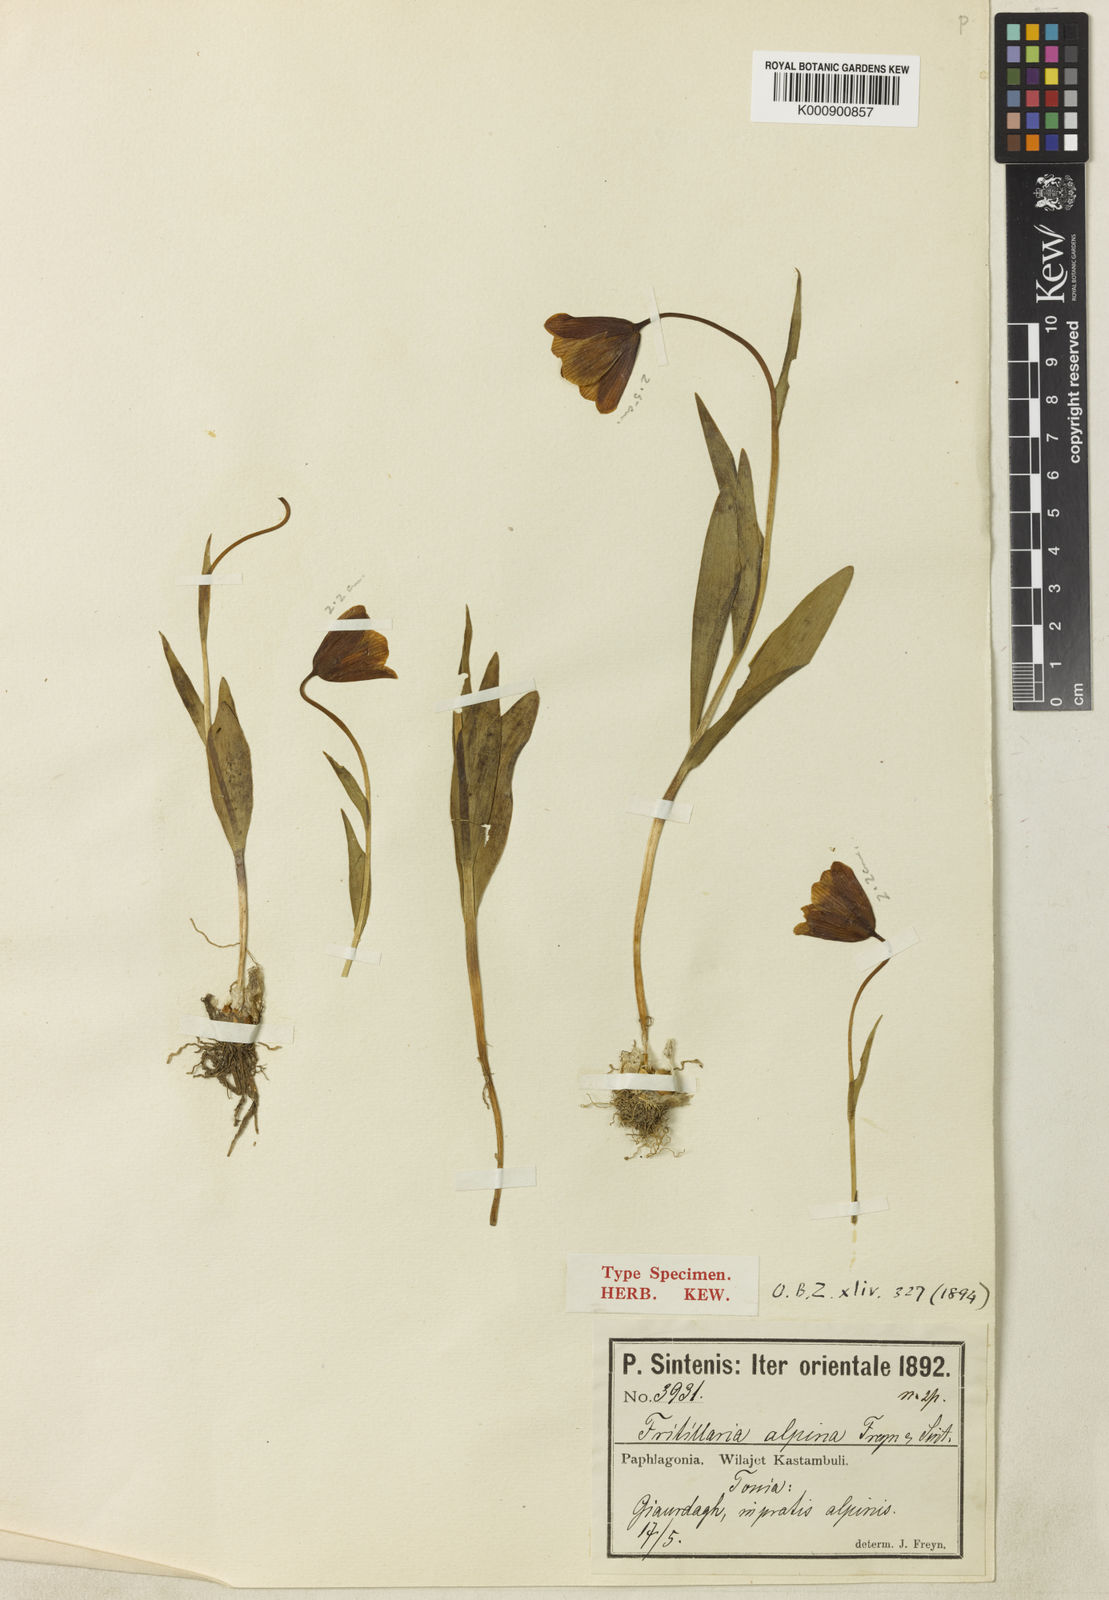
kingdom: Plantae
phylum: Tracheophyta
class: Liliopsida
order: Liliales
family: Liliaceae
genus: Fritillaria
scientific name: Fritillaria armena
